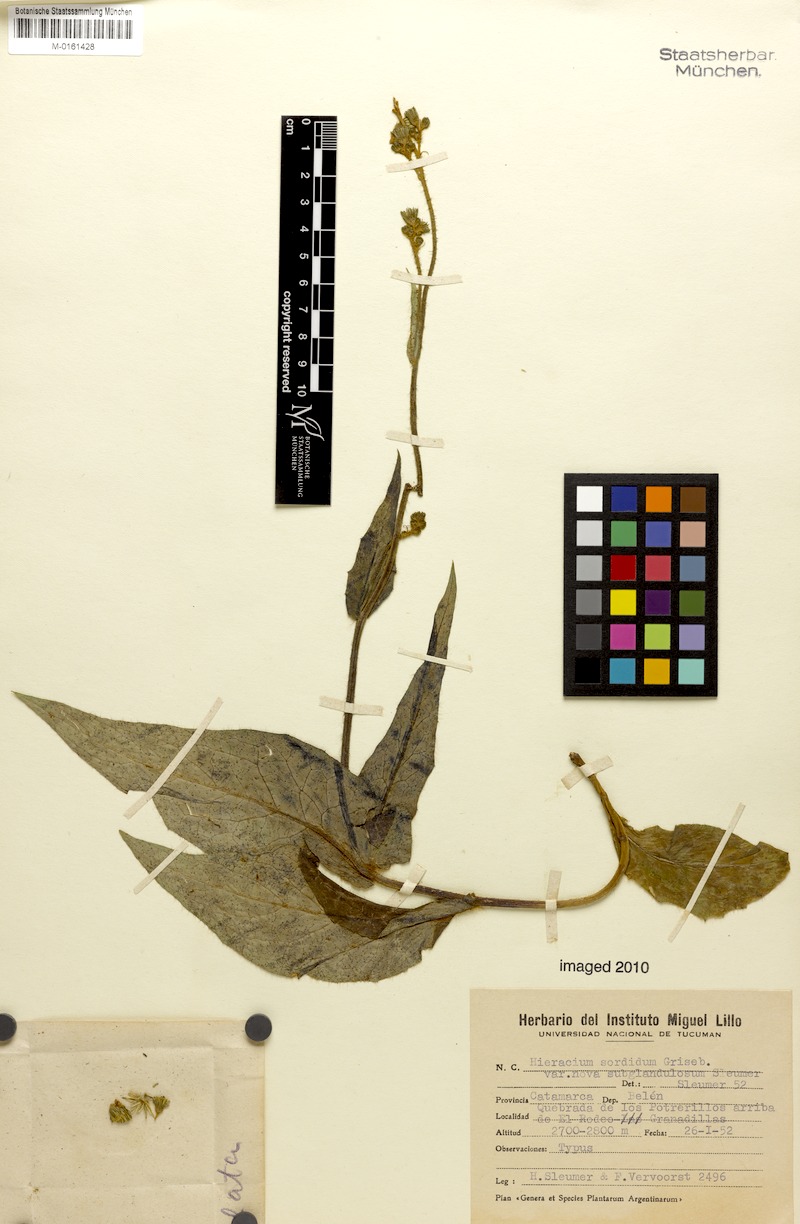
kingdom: Plantae
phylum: Tracheophyta
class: Magnoliopsida
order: Asterales
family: Asteraceae
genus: Hieracium
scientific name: Hieracium streptochaetum
